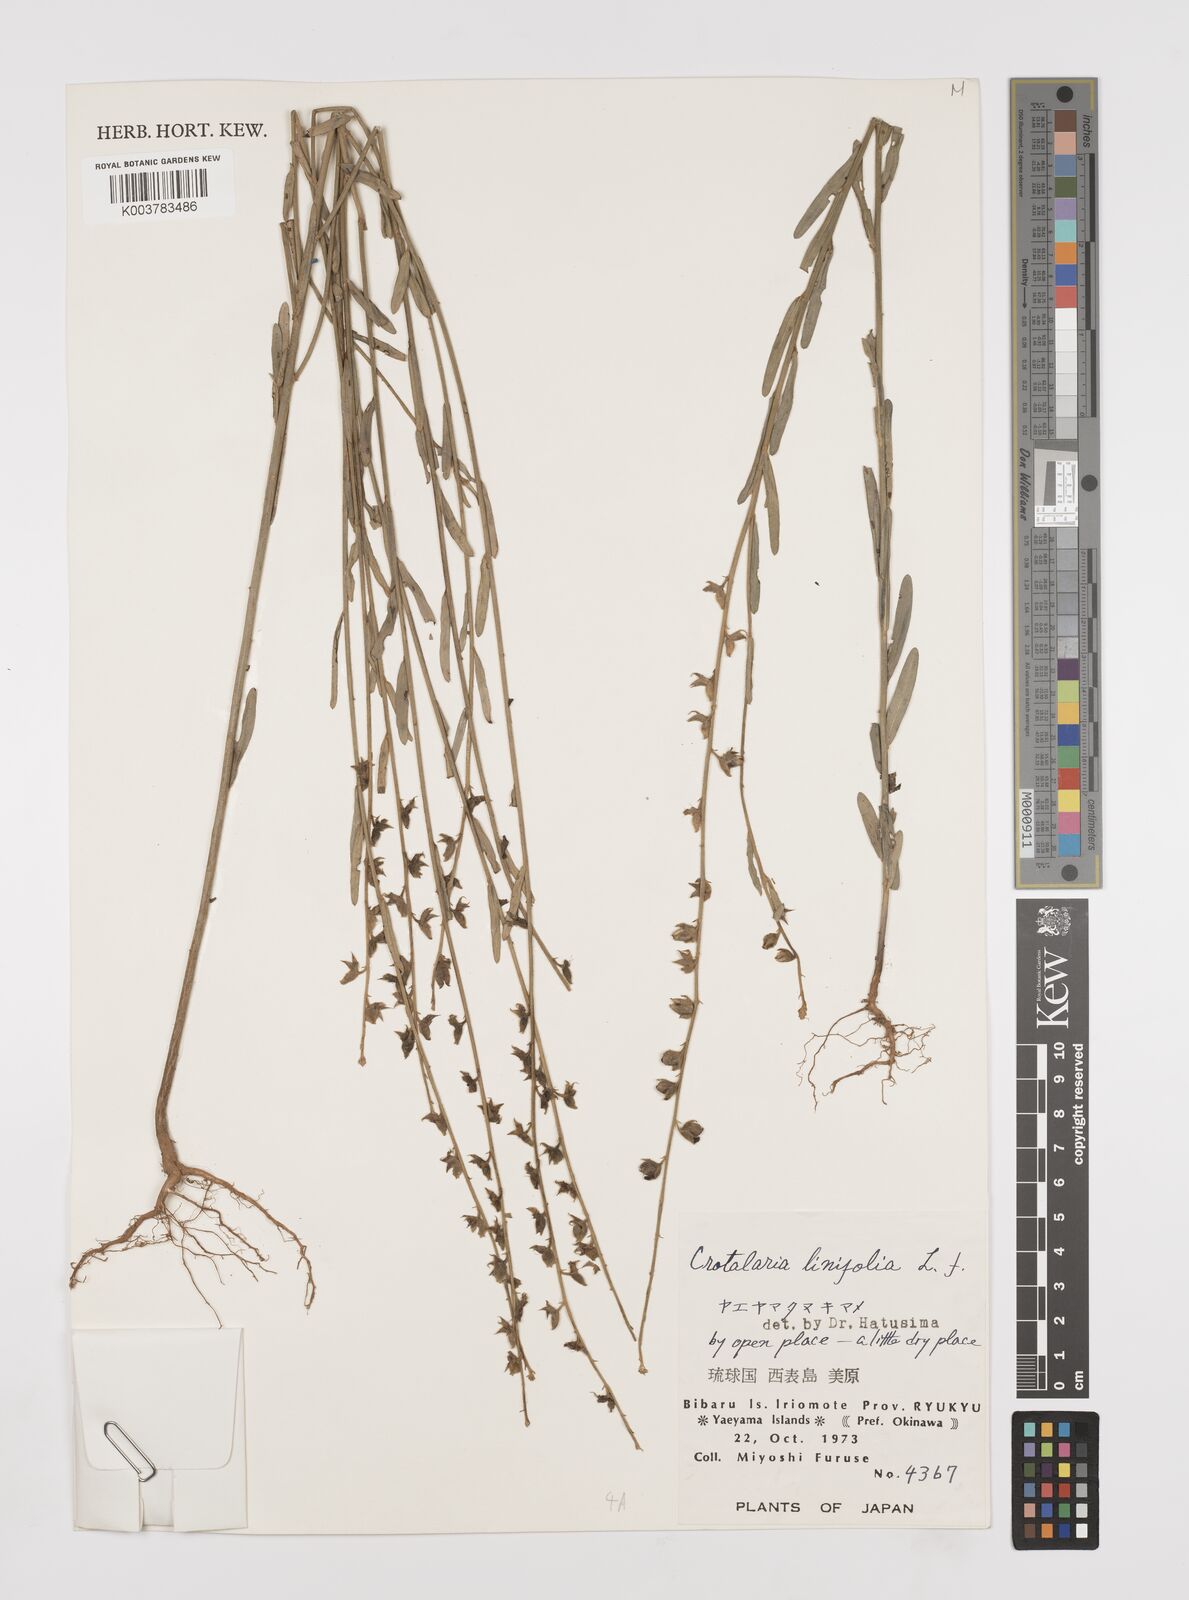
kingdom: Plantae
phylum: Tracheophyta
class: Magnoliopsida
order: Fabales
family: Fabaceae
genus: Crotalaria
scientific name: Crotalaria linifolia
